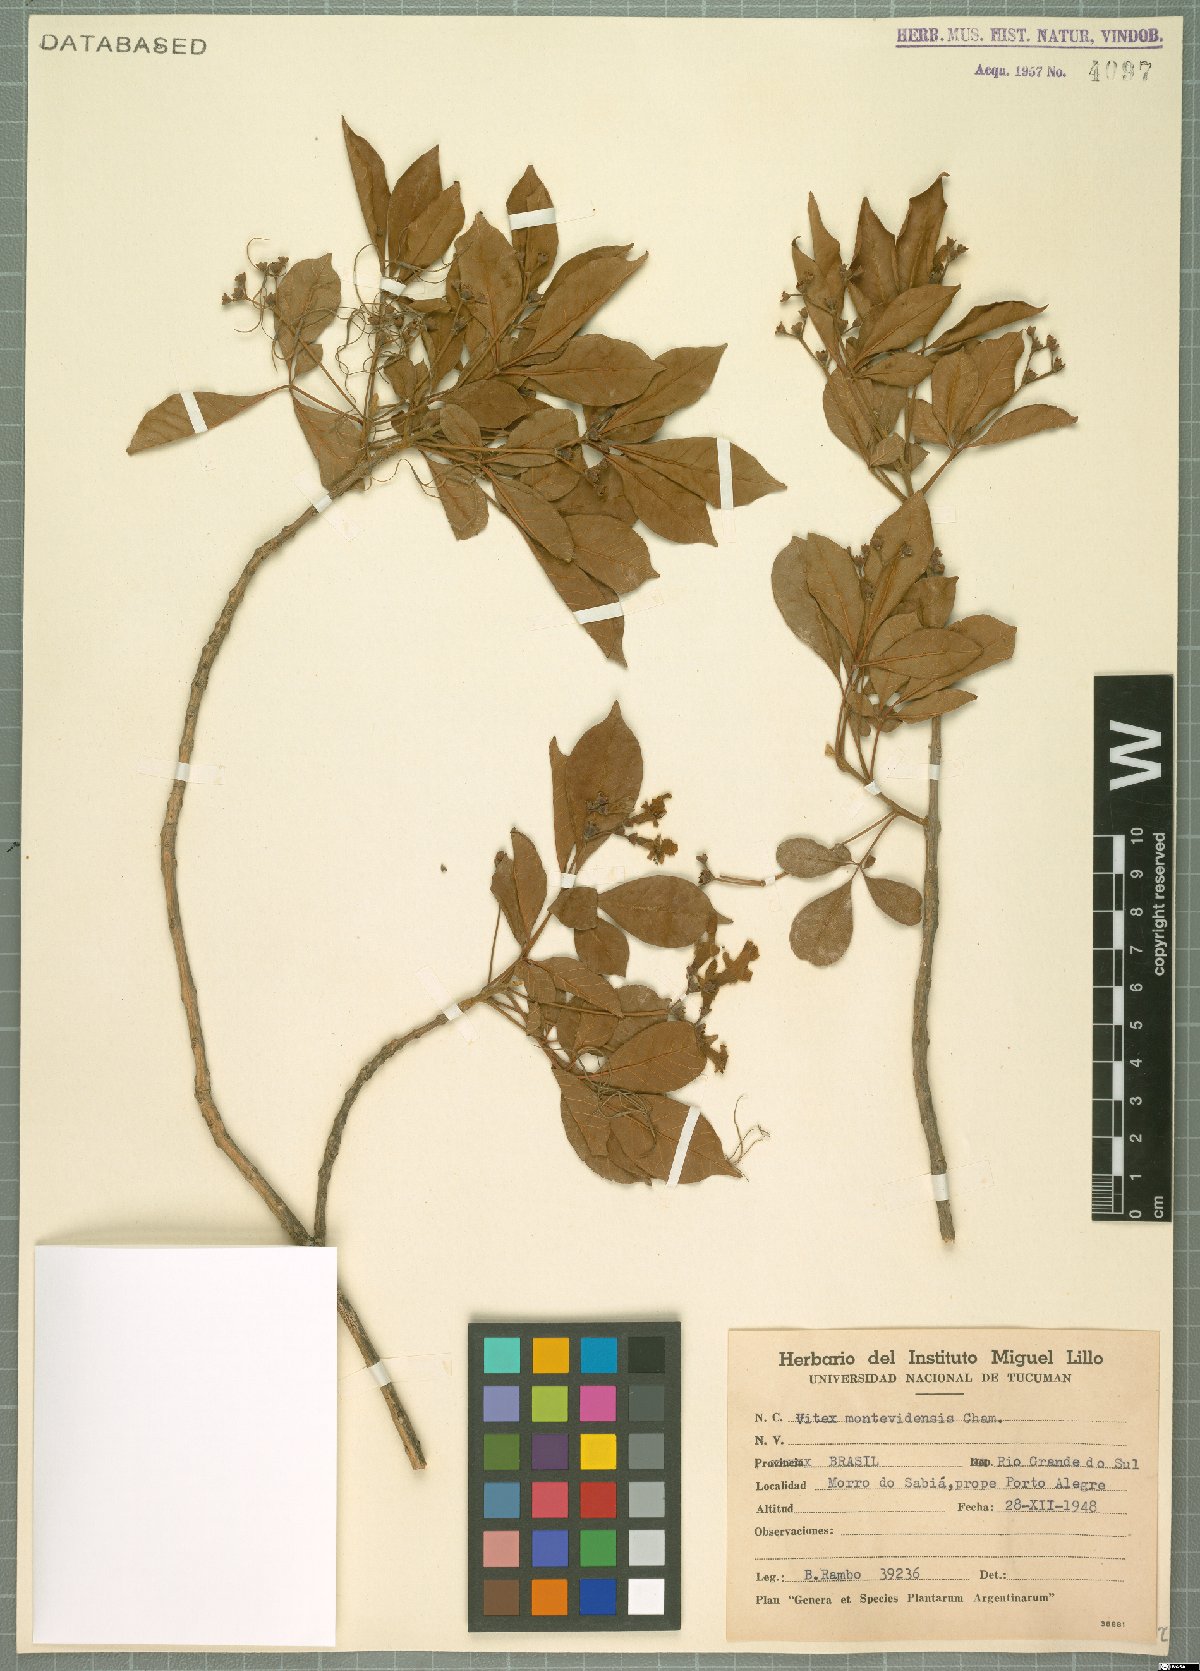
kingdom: Plantae
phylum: Tracheophyta
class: Magnoliopsida
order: Lamiales
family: Lamiaceae
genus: Vitex
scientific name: Vitex megapotamica
